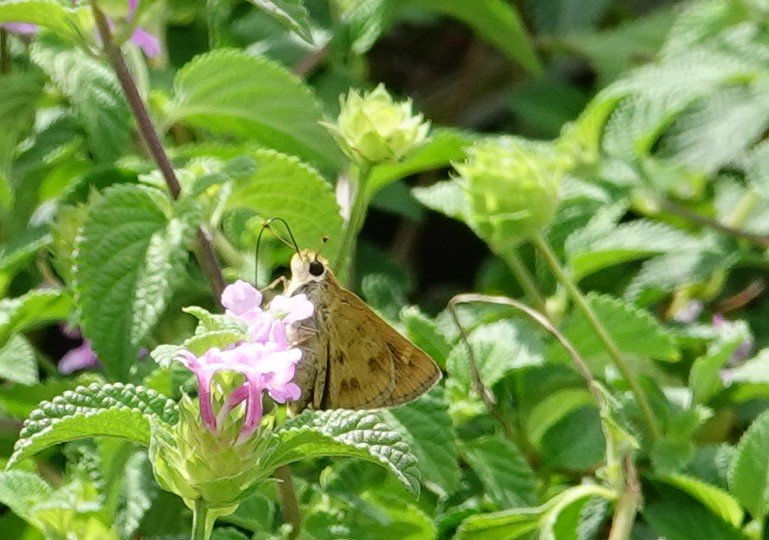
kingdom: Animalia
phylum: Arthropoda
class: Insecta
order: Lepidoptera
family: Hesperiidae
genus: Polites
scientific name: Polites vibex
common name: Whirlabout
